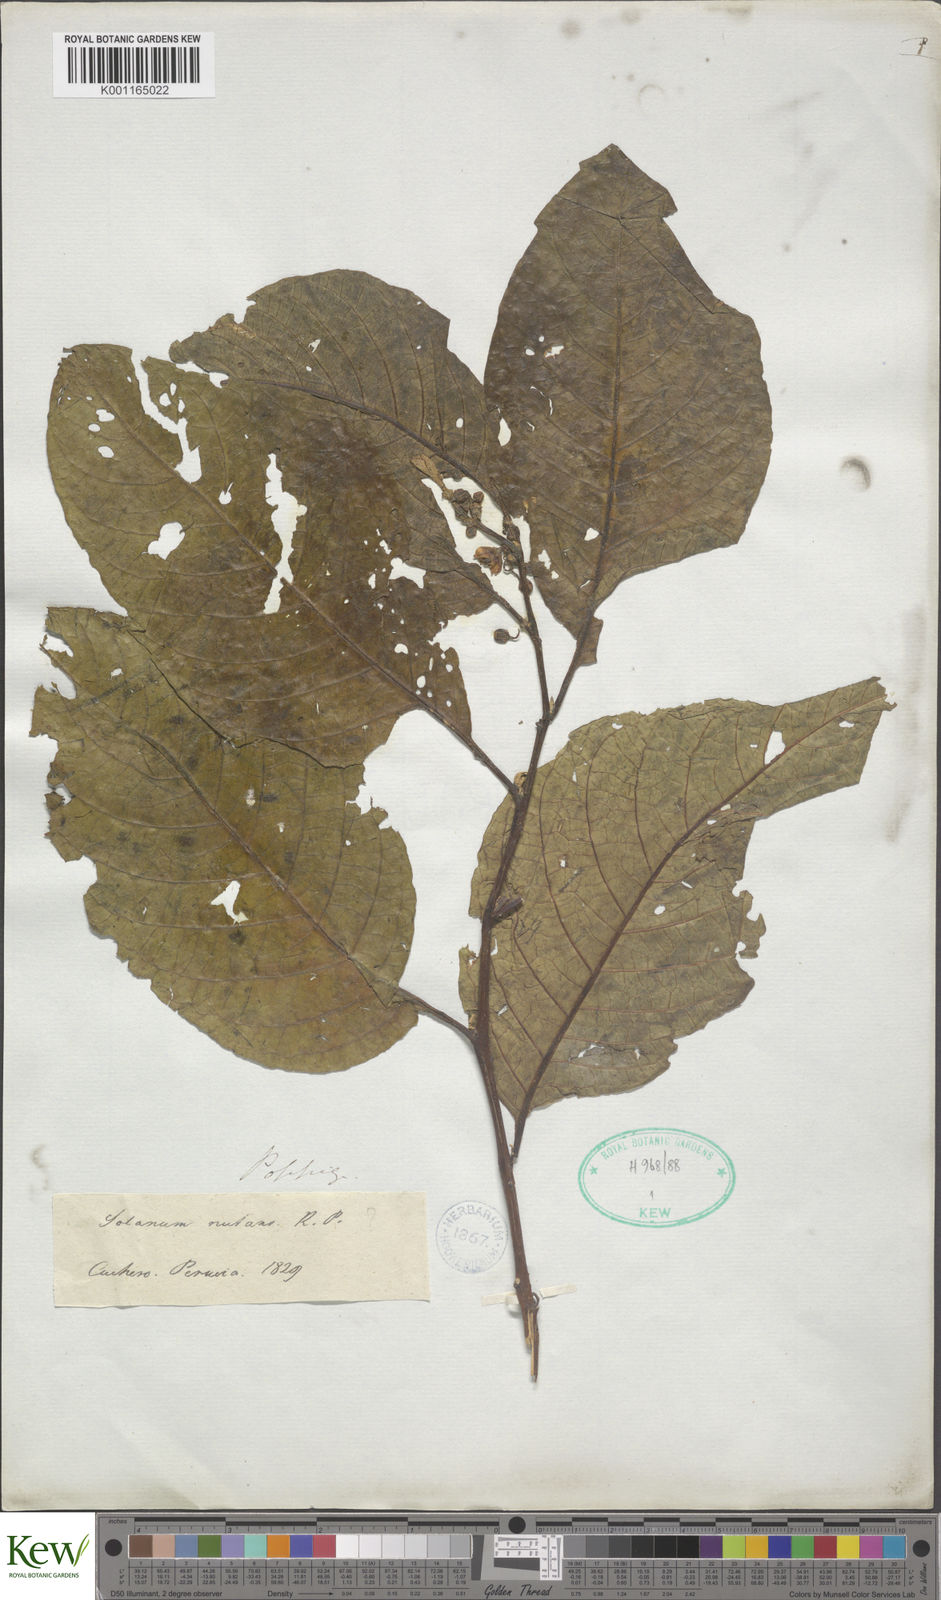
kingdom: Plantae
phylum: Tracheophyta
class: Magnoliopsida
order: Solanales
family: Solanaceae
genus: Solanum
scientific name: Solanum nutans
